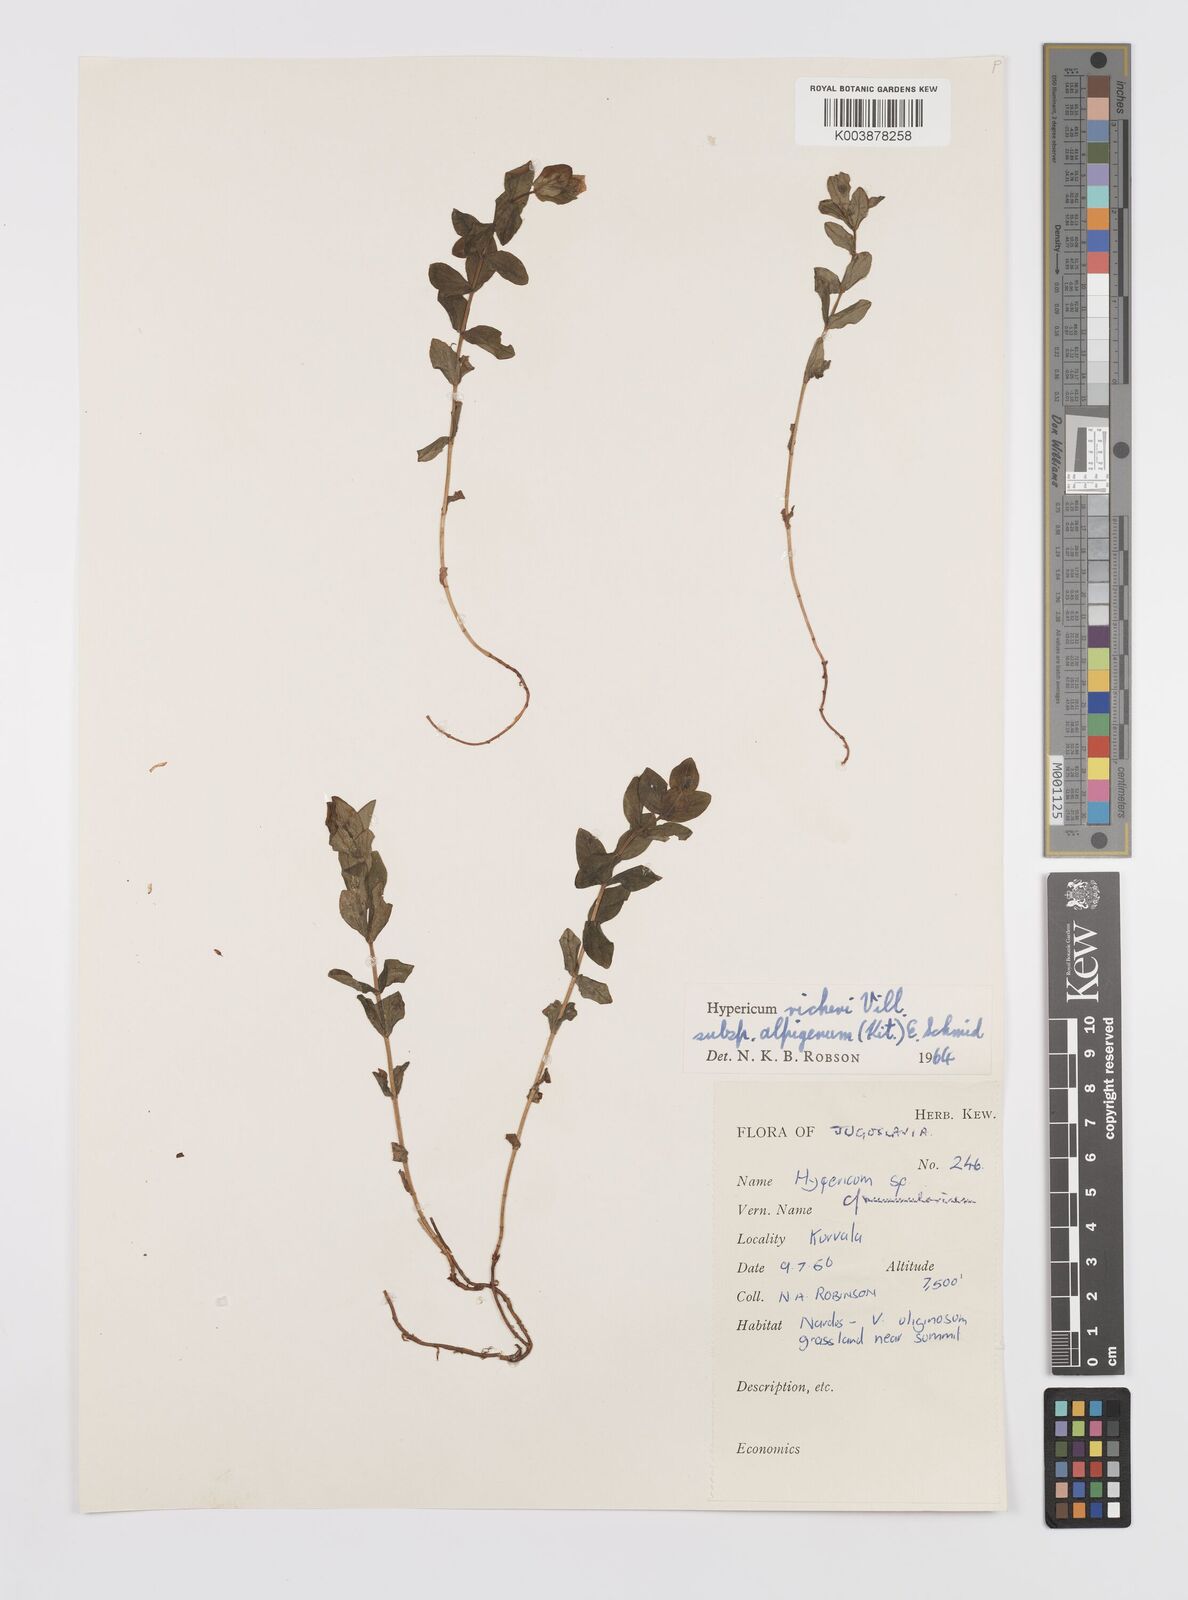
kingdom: Plantae
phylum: Tracheophyta
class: Magnoliopsida
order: Malpighiales
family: Hypericaceae
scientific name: Hypericaceae
